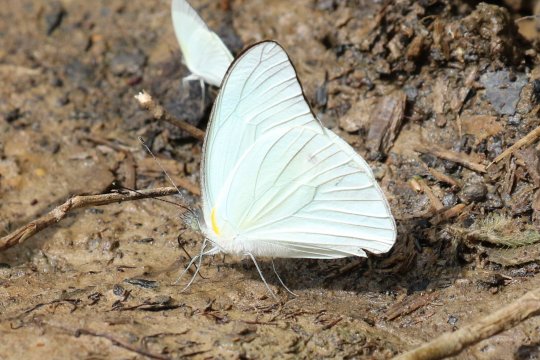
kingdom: Animalia
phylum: Arthropoda
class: Insecta
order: Lepidoptera
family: Pieridae
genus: Glutophrissa
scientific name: Glutophrissa drusilla
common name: Florida White
